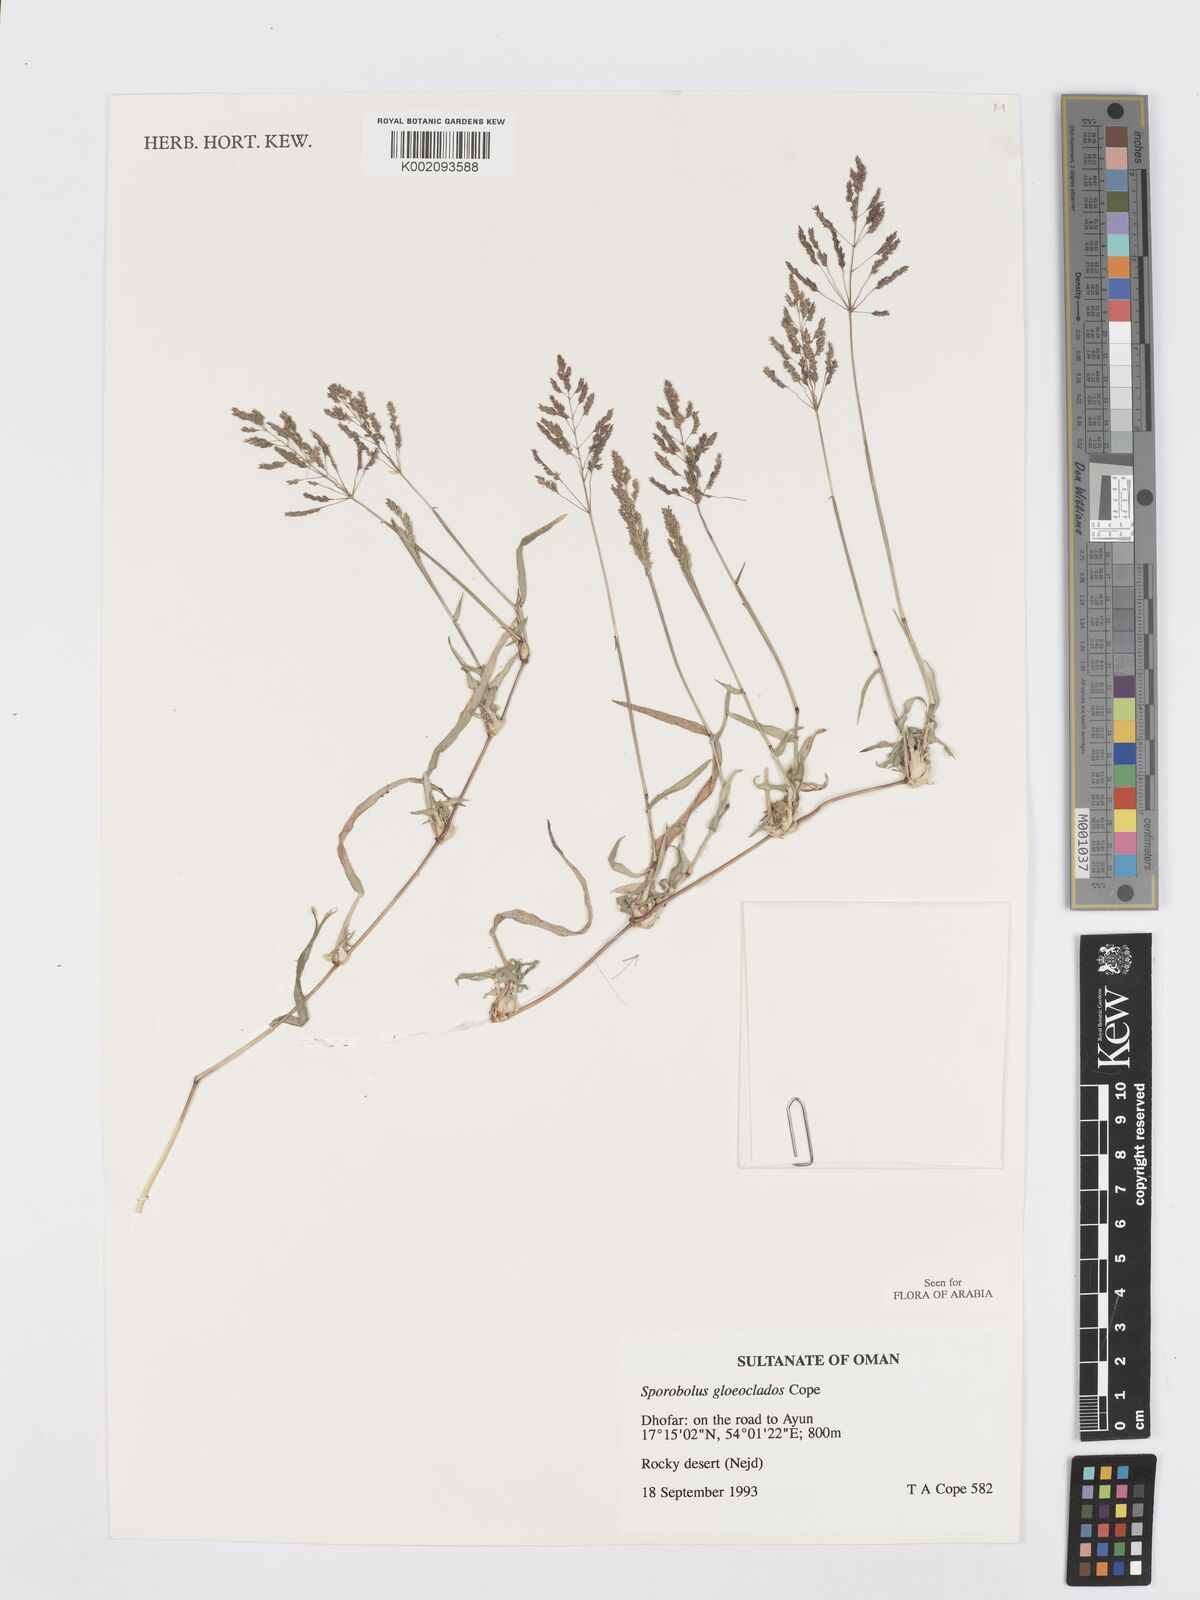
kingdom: Plantae
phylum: Tracheophyta
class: Liliopsida
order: Poales
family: Poaceae
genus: Sporobolus
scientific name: Sporobolus gloeoclados
